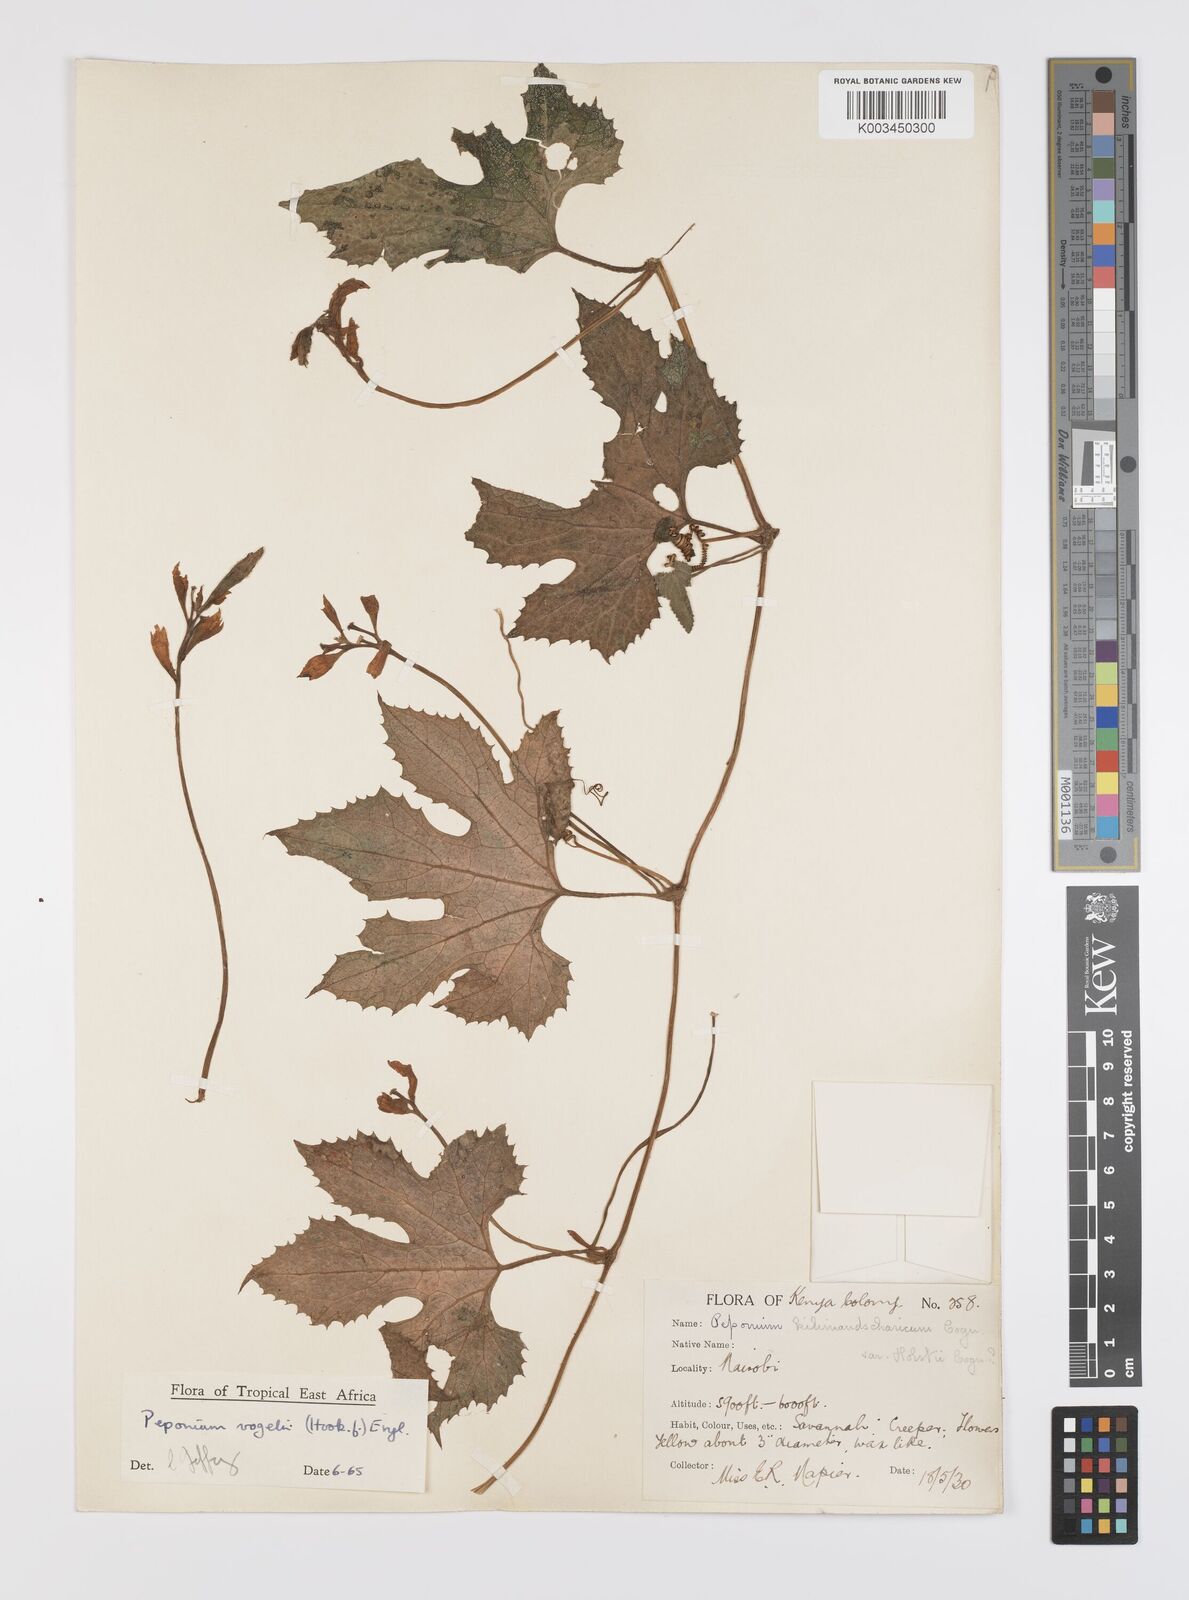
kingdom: Plantae
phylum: Tracheophyta
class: Magnoliopsida
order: Cucurbitales
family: Cucurbitaceae
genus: Peponium
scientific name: Peponium vogelii
